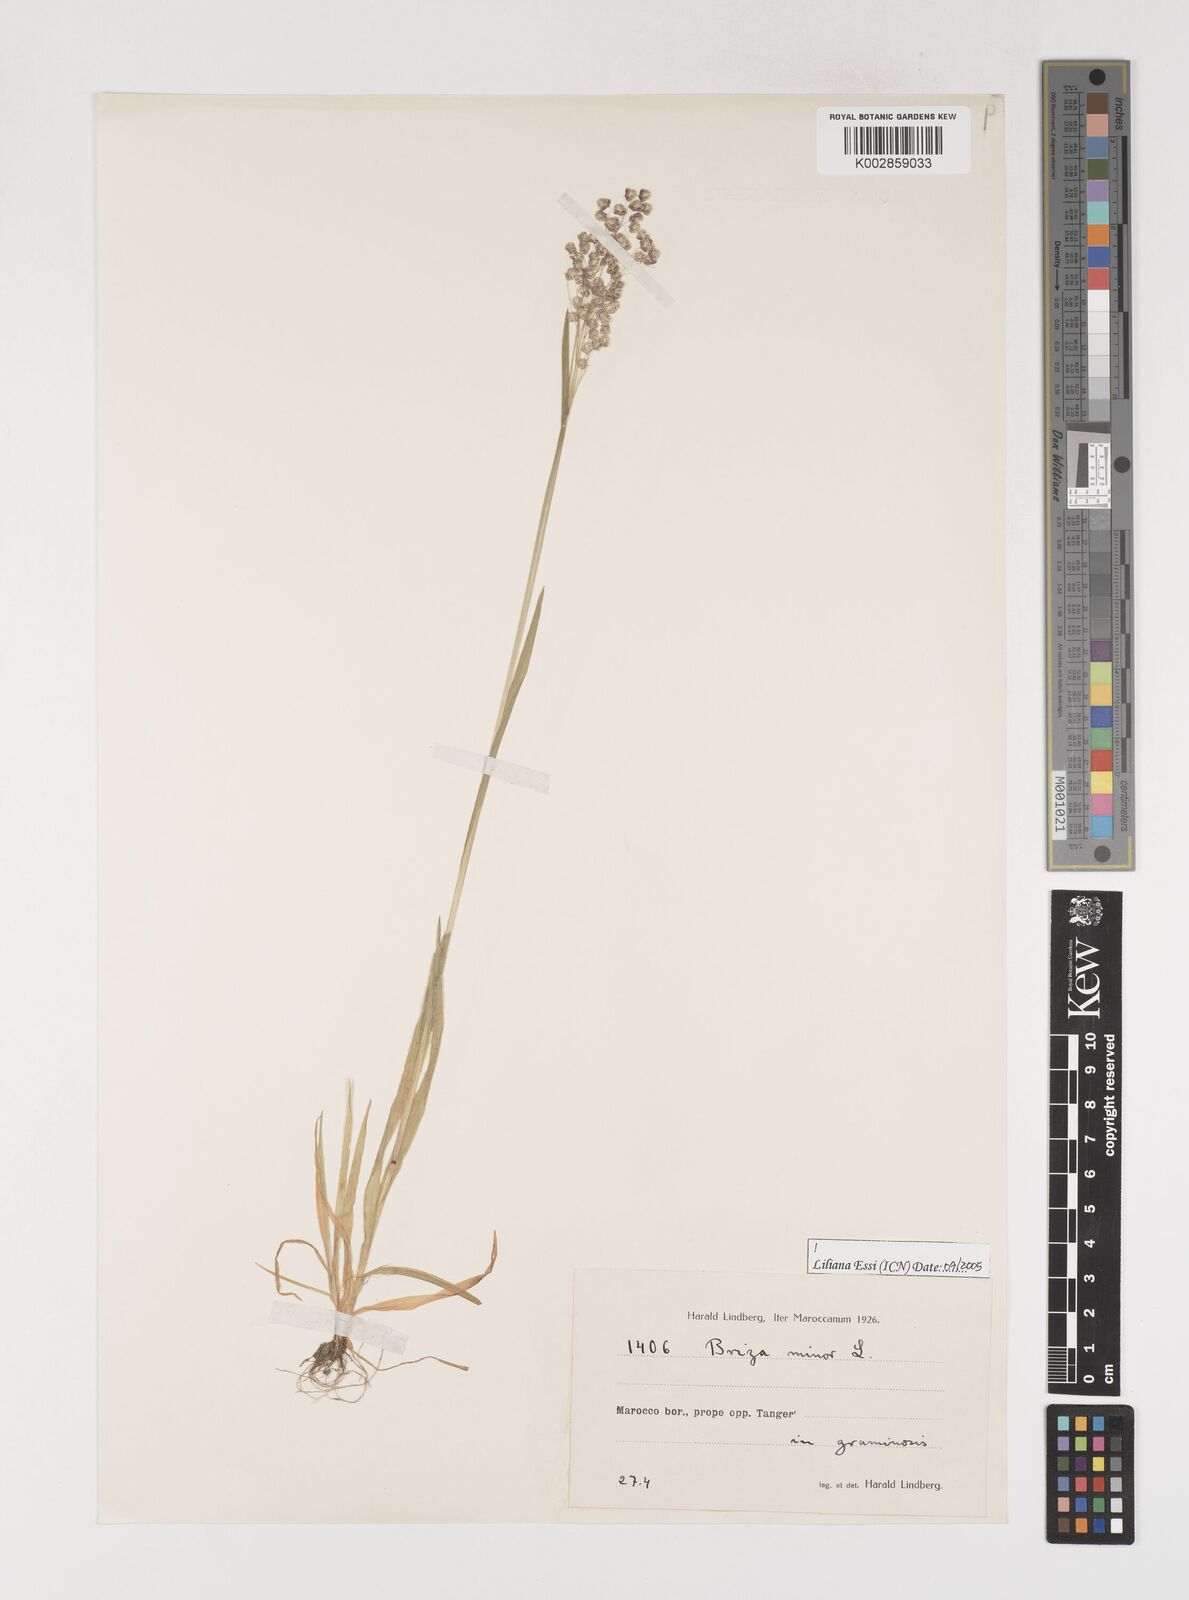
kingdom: Plantae
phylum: Tracheophyta
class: Liliopsida
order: Poales
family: Poaceae
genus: Briza
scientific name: Briza minor
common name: Lesser quaking-grass
